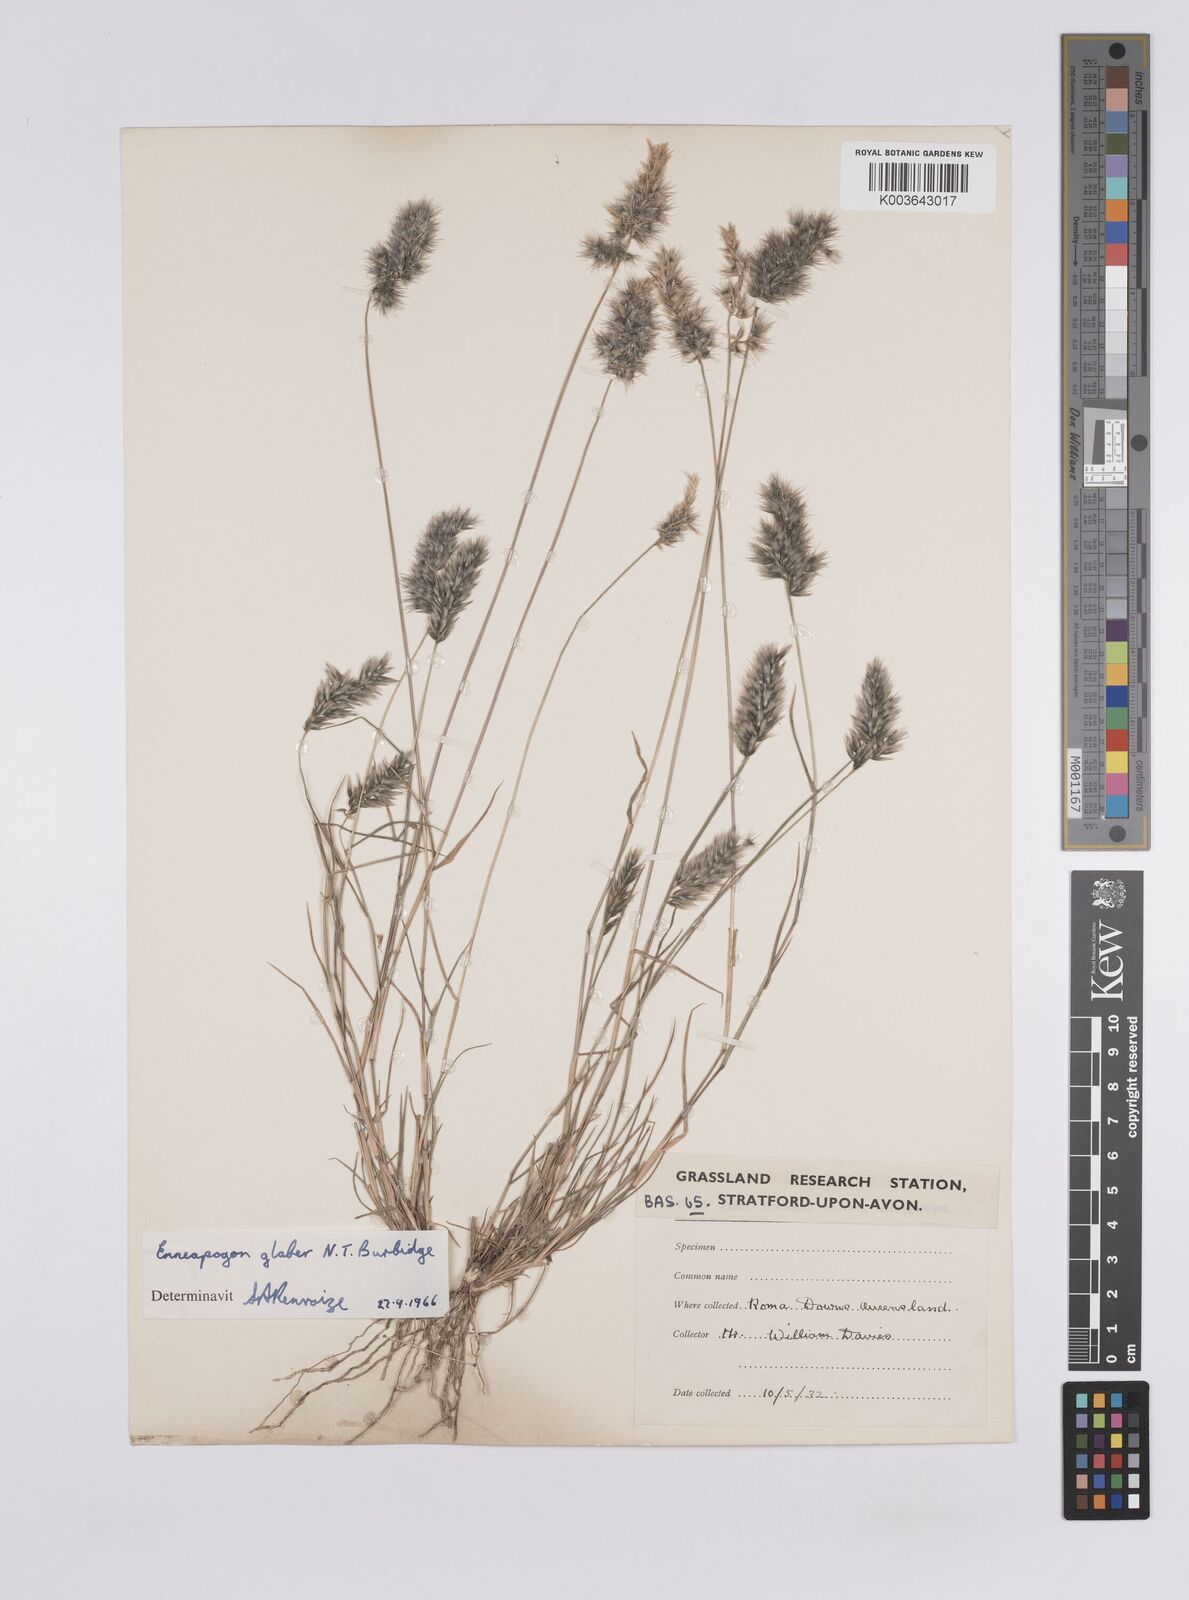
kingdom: Plantae
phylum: Tracheophyta
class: Liliopsida
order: Poales
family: Poaceae
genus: Enneapogon
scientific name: Enneapogon purpurascens
